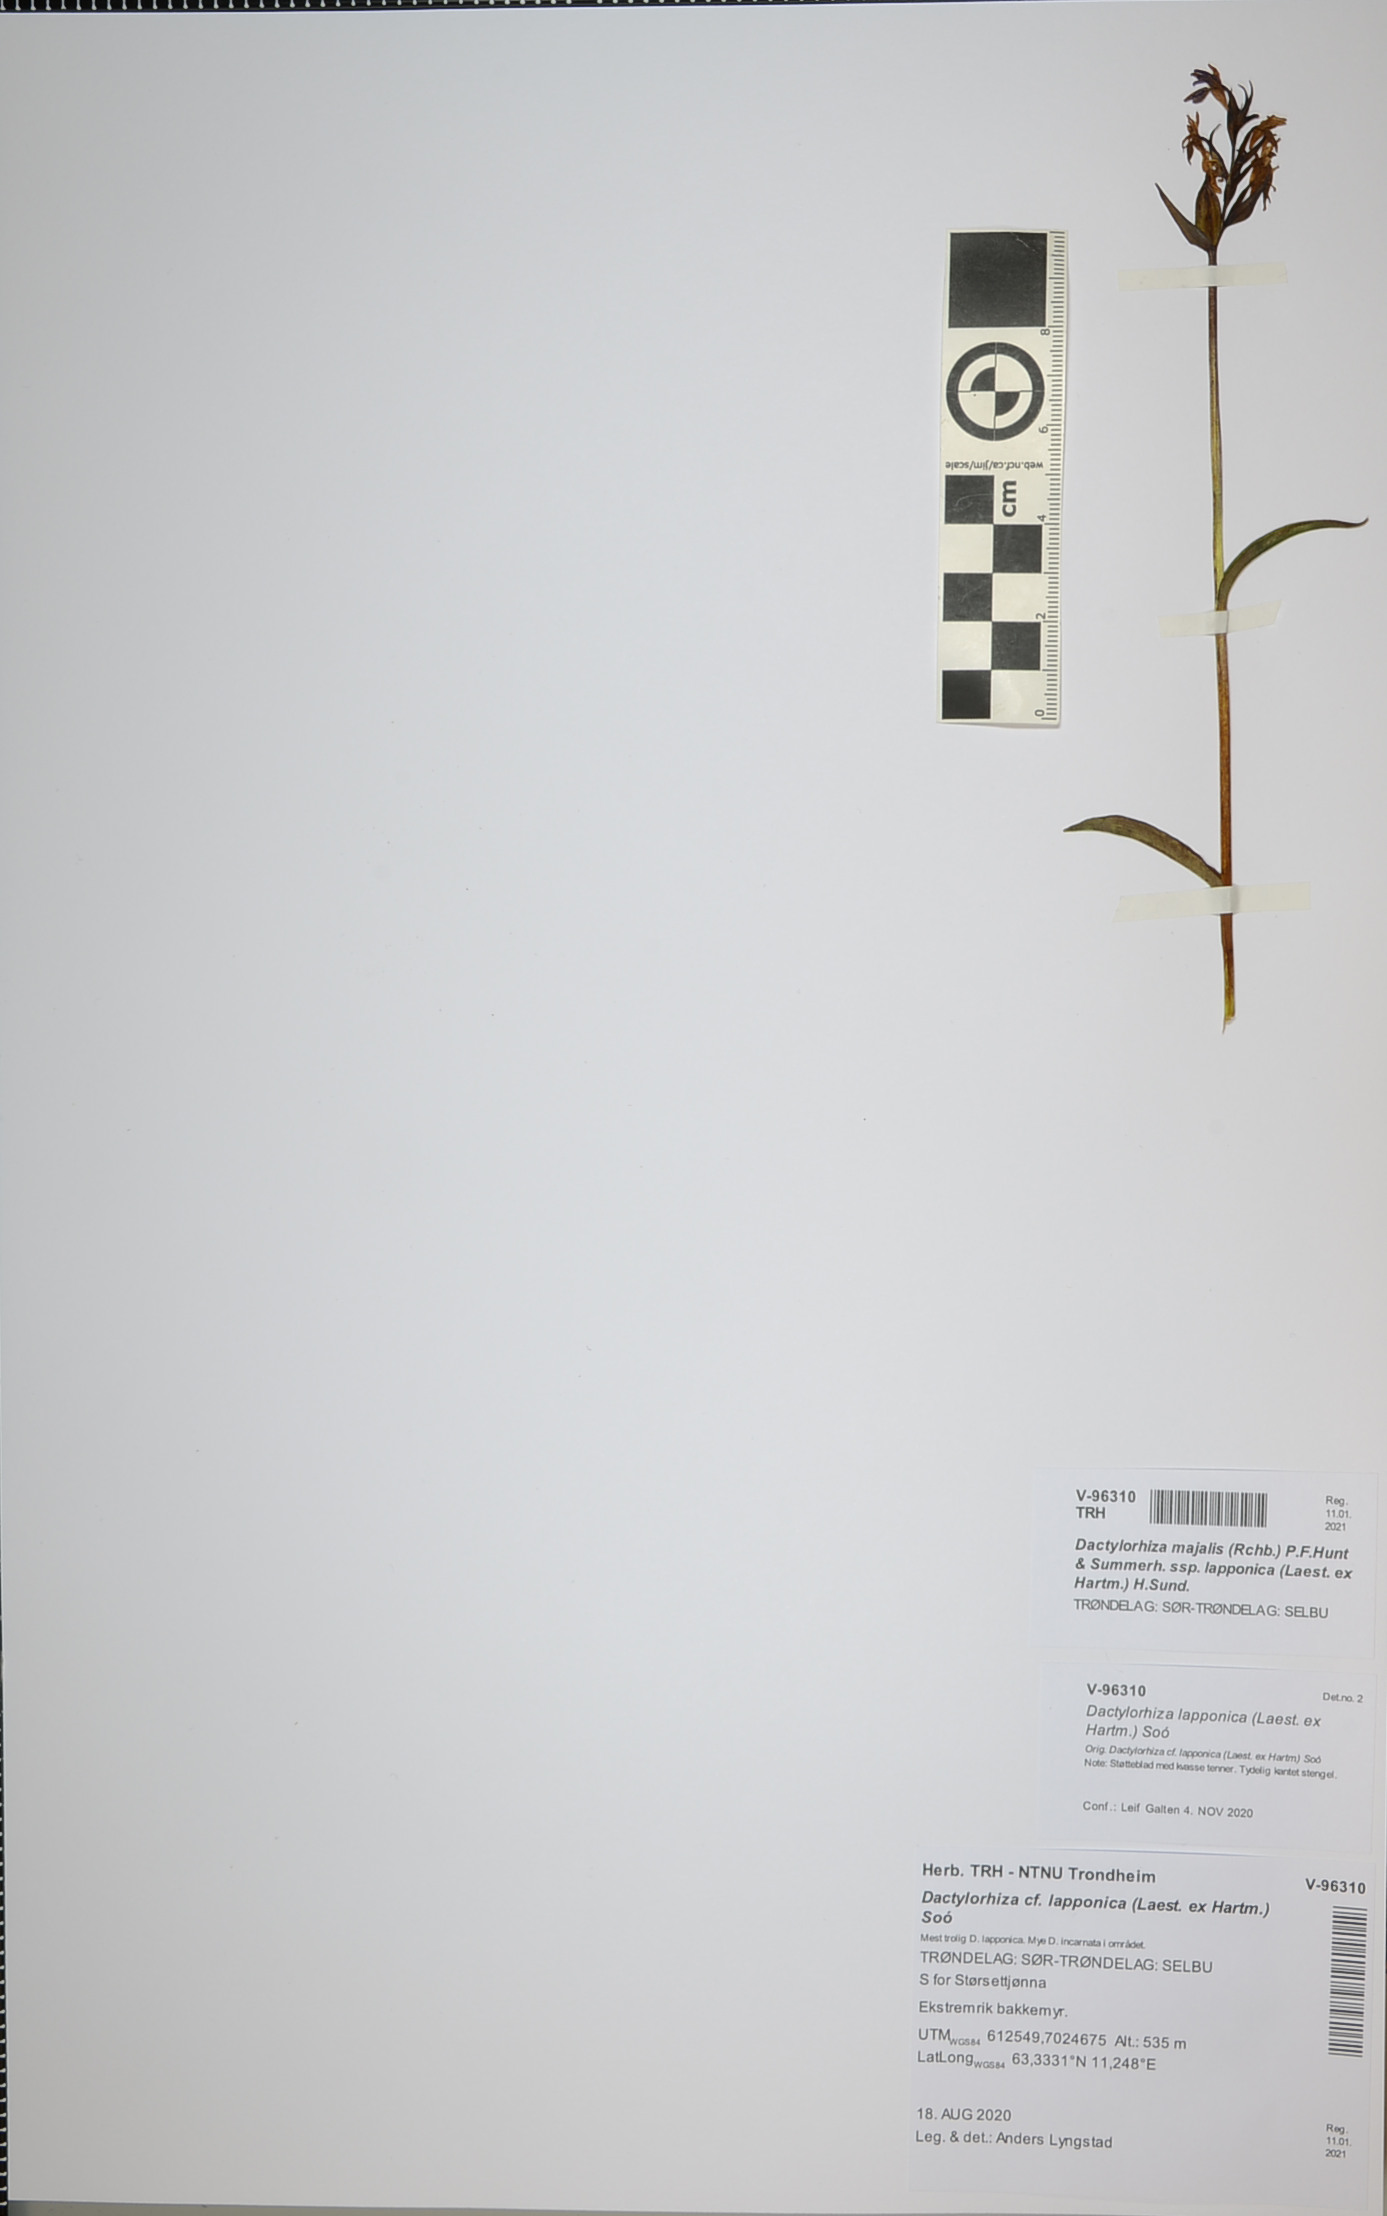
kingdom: Plantae
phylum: Tracheophyta
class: Liliopsida
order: Asparagales
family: Orchidaceae
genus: Dactylorhiza
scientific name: Dactylorhiza majalis
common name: Marsh orchid
